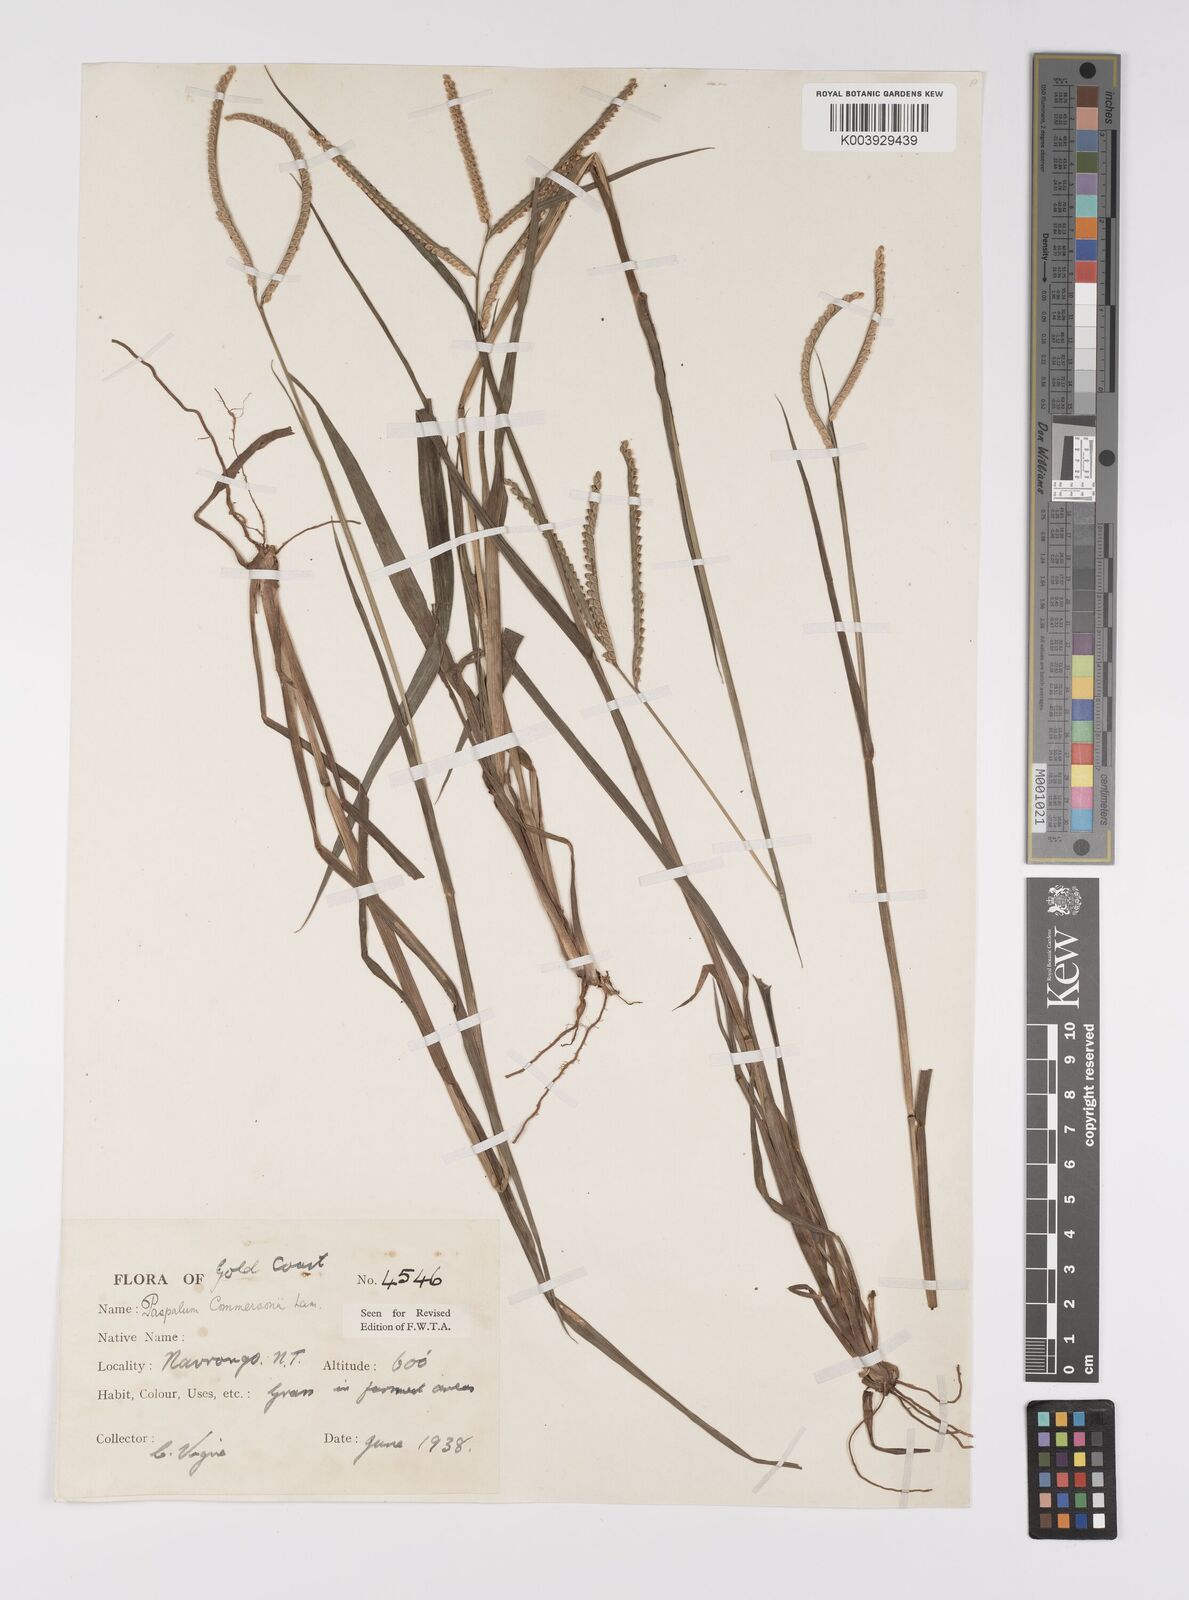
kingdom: Plantae
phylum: Tracheophyta
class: Liliopsida
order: Poales
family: Poaceae
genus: Paspalum
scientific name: Paspalum scrobiculatum
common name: Kodo millet
